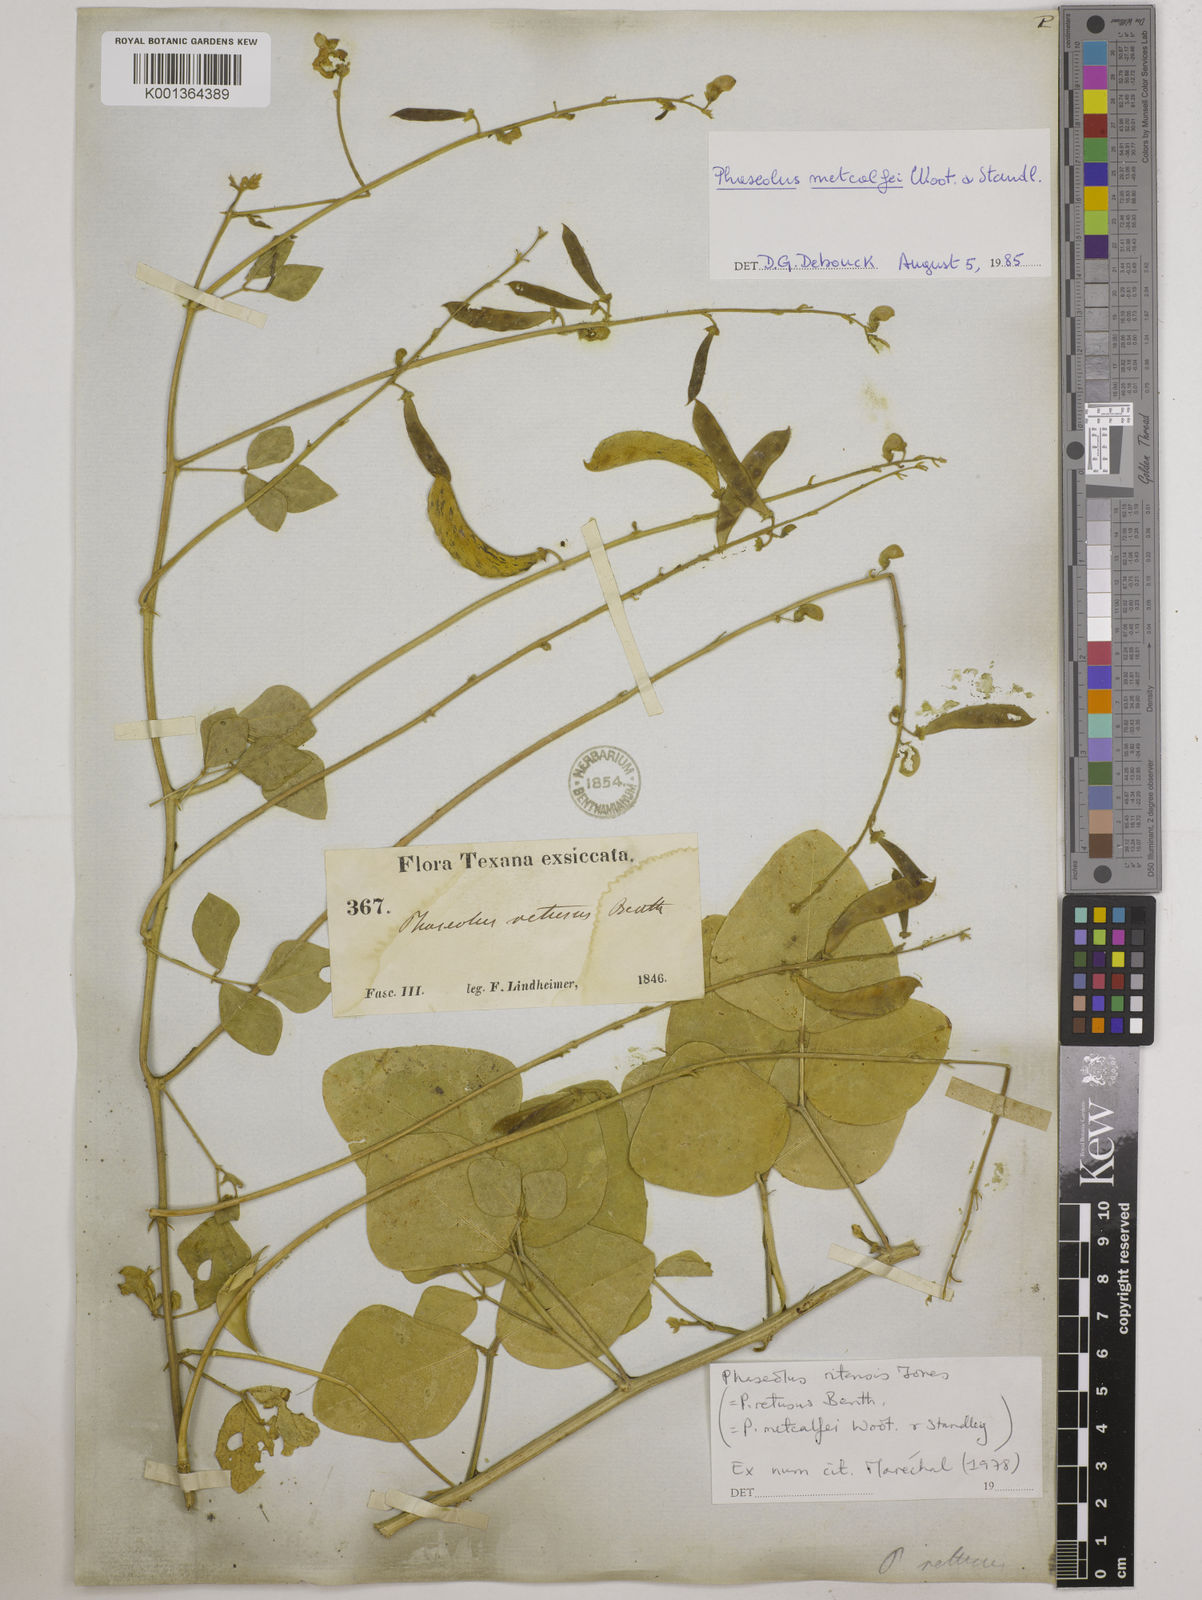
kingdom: Plantae
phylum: Tracheophyta
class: Magnoliopsida
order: Fabales
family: Fabaceae
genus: Phaseolus
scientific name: Phaseolus maculatus
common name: Metcalfe bean
